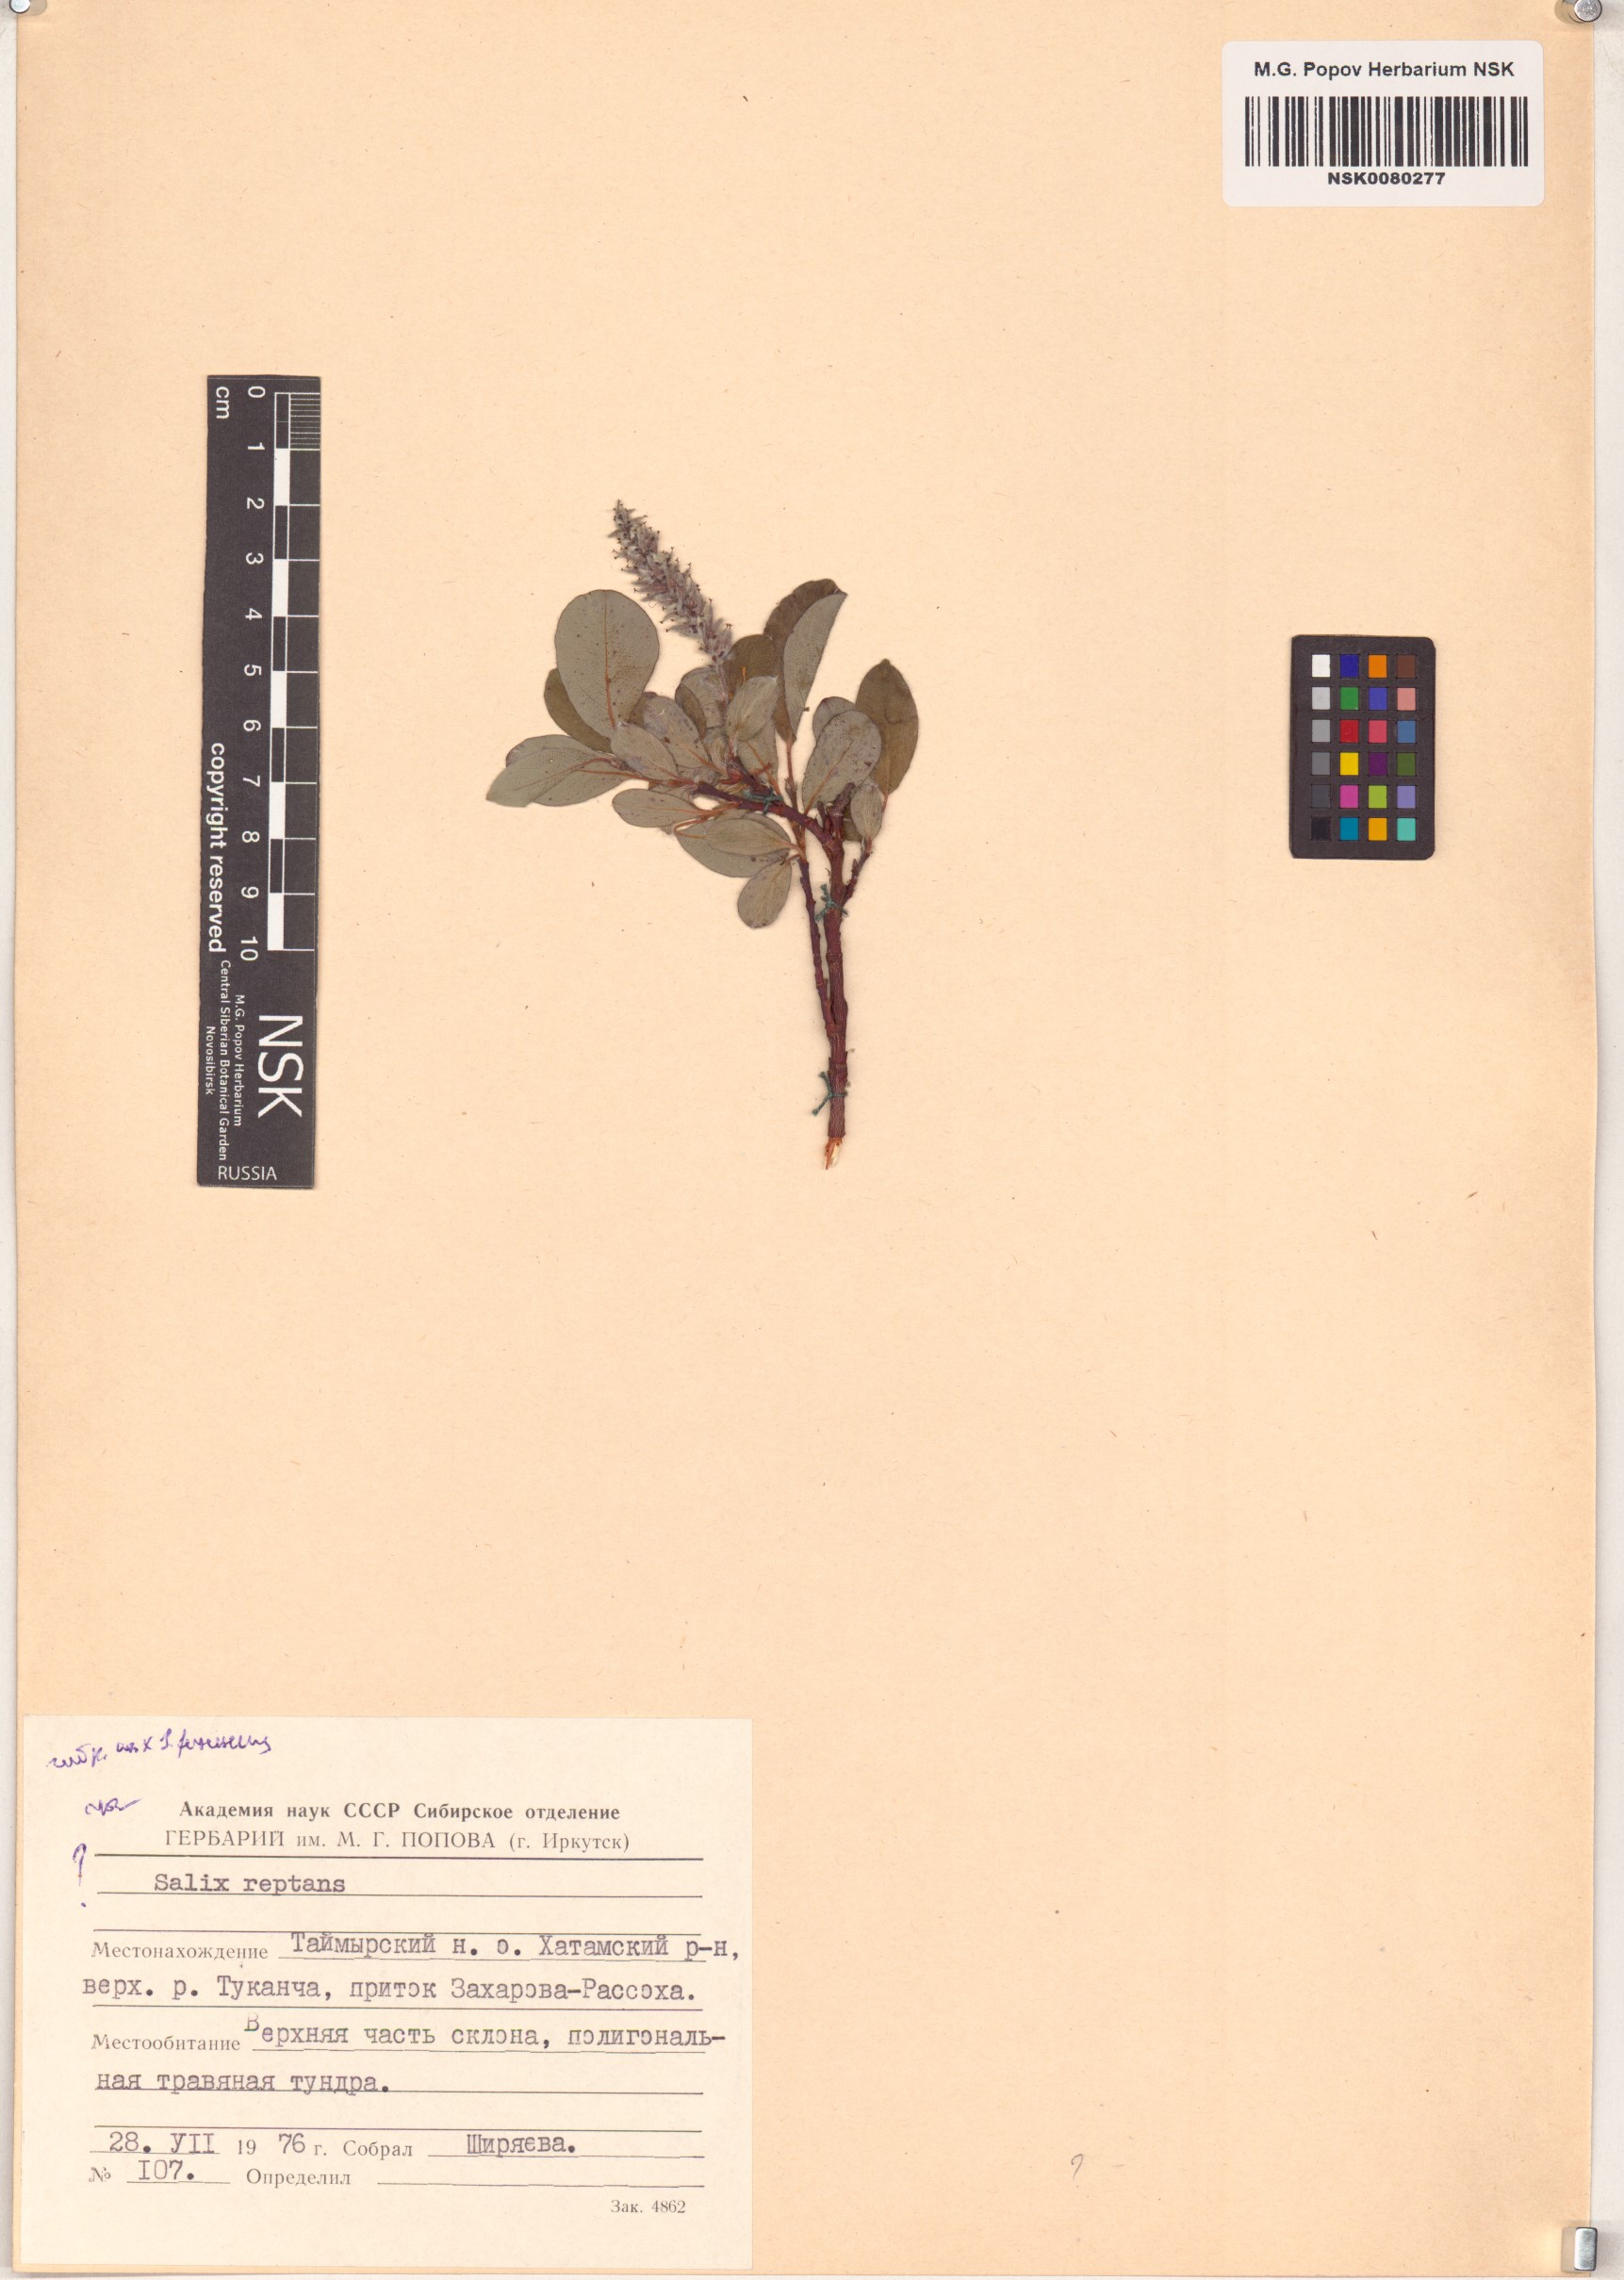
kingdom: Plantae
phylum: Tracheophyta
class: Magnoliopsida
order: Malpighiales
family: Salicaceae
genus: Salix
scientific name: Salix reptans
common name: Arctic creeping willow
